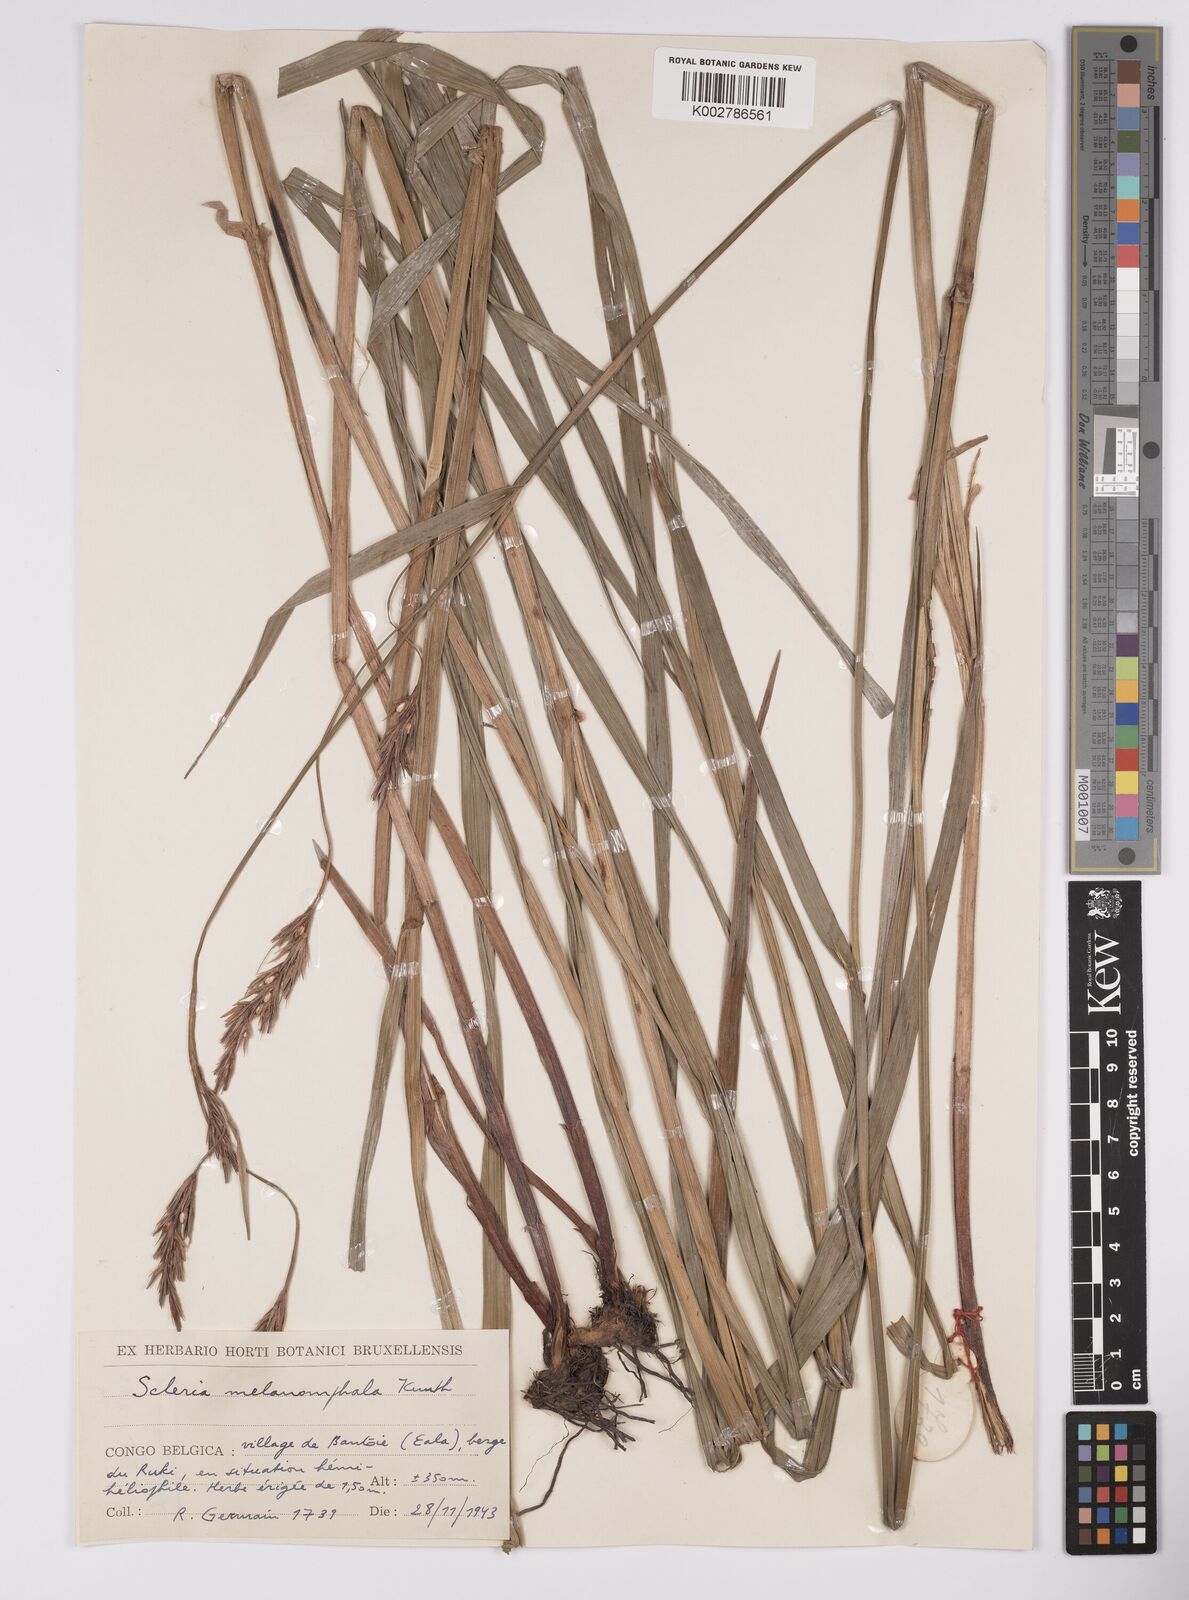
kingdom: Plantae
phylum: Tracheophyta
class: Liliopsida
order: Poales
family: Cyperaceae
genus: Scleria
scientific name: Scleria melanomphala
